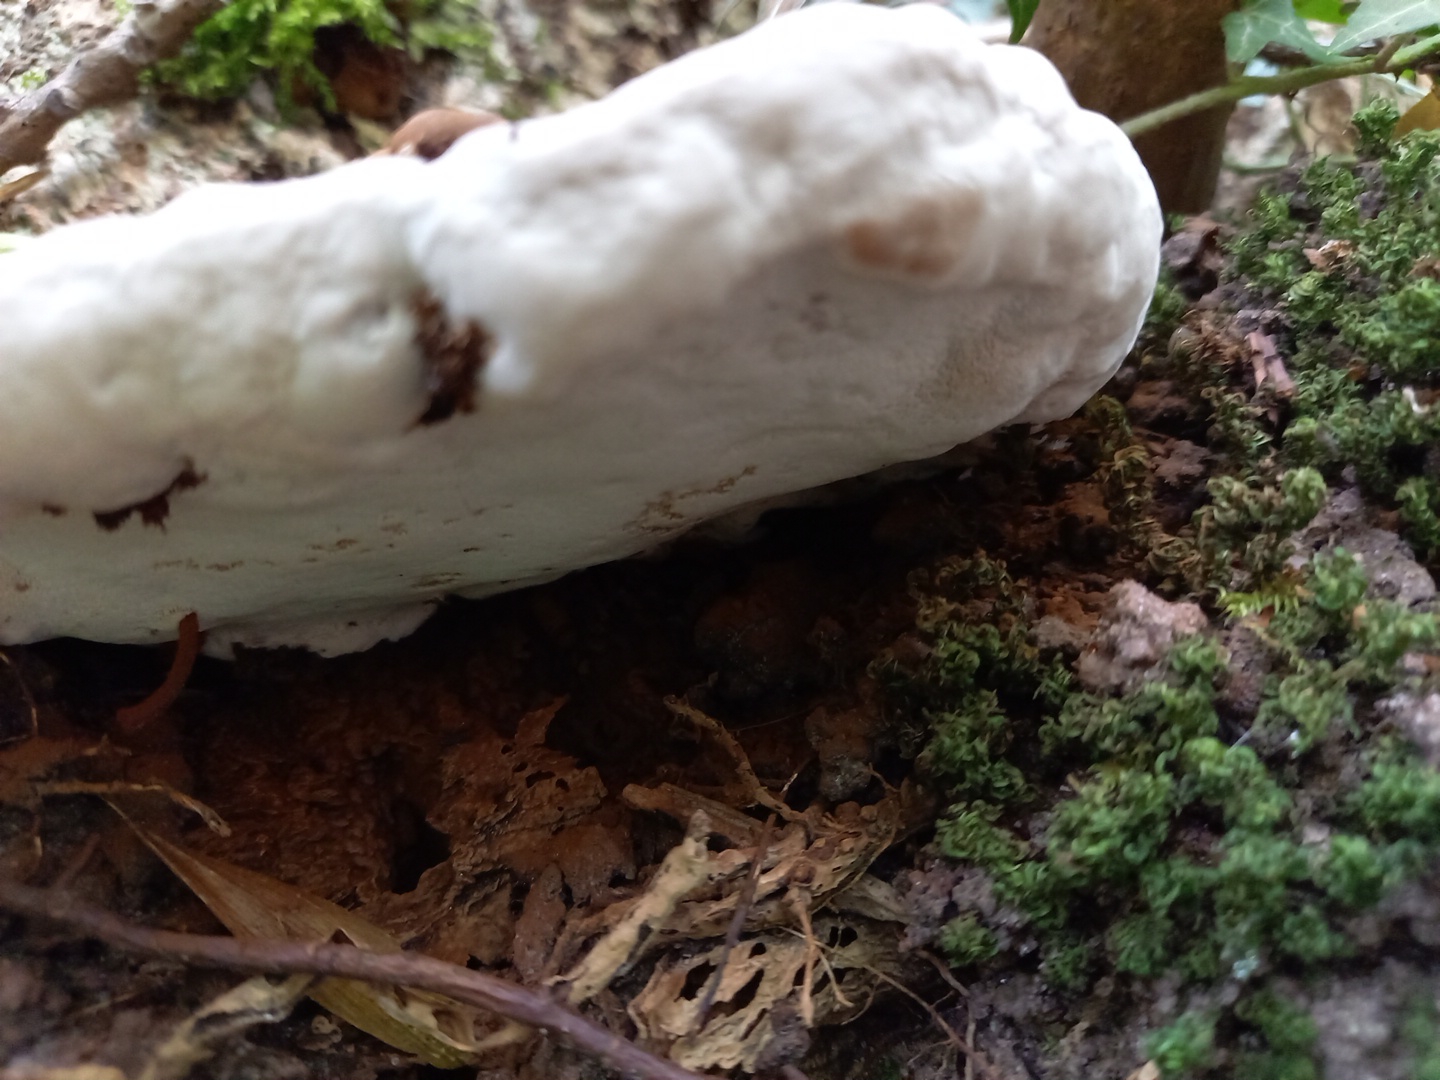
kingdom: Fungi
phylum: Basidiomycota
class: Agaricomycetes
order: Polyporales
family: Polyporaceae
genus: Ganoderma
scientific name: Ganoderma applanatum
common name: flad lakporesvamp
